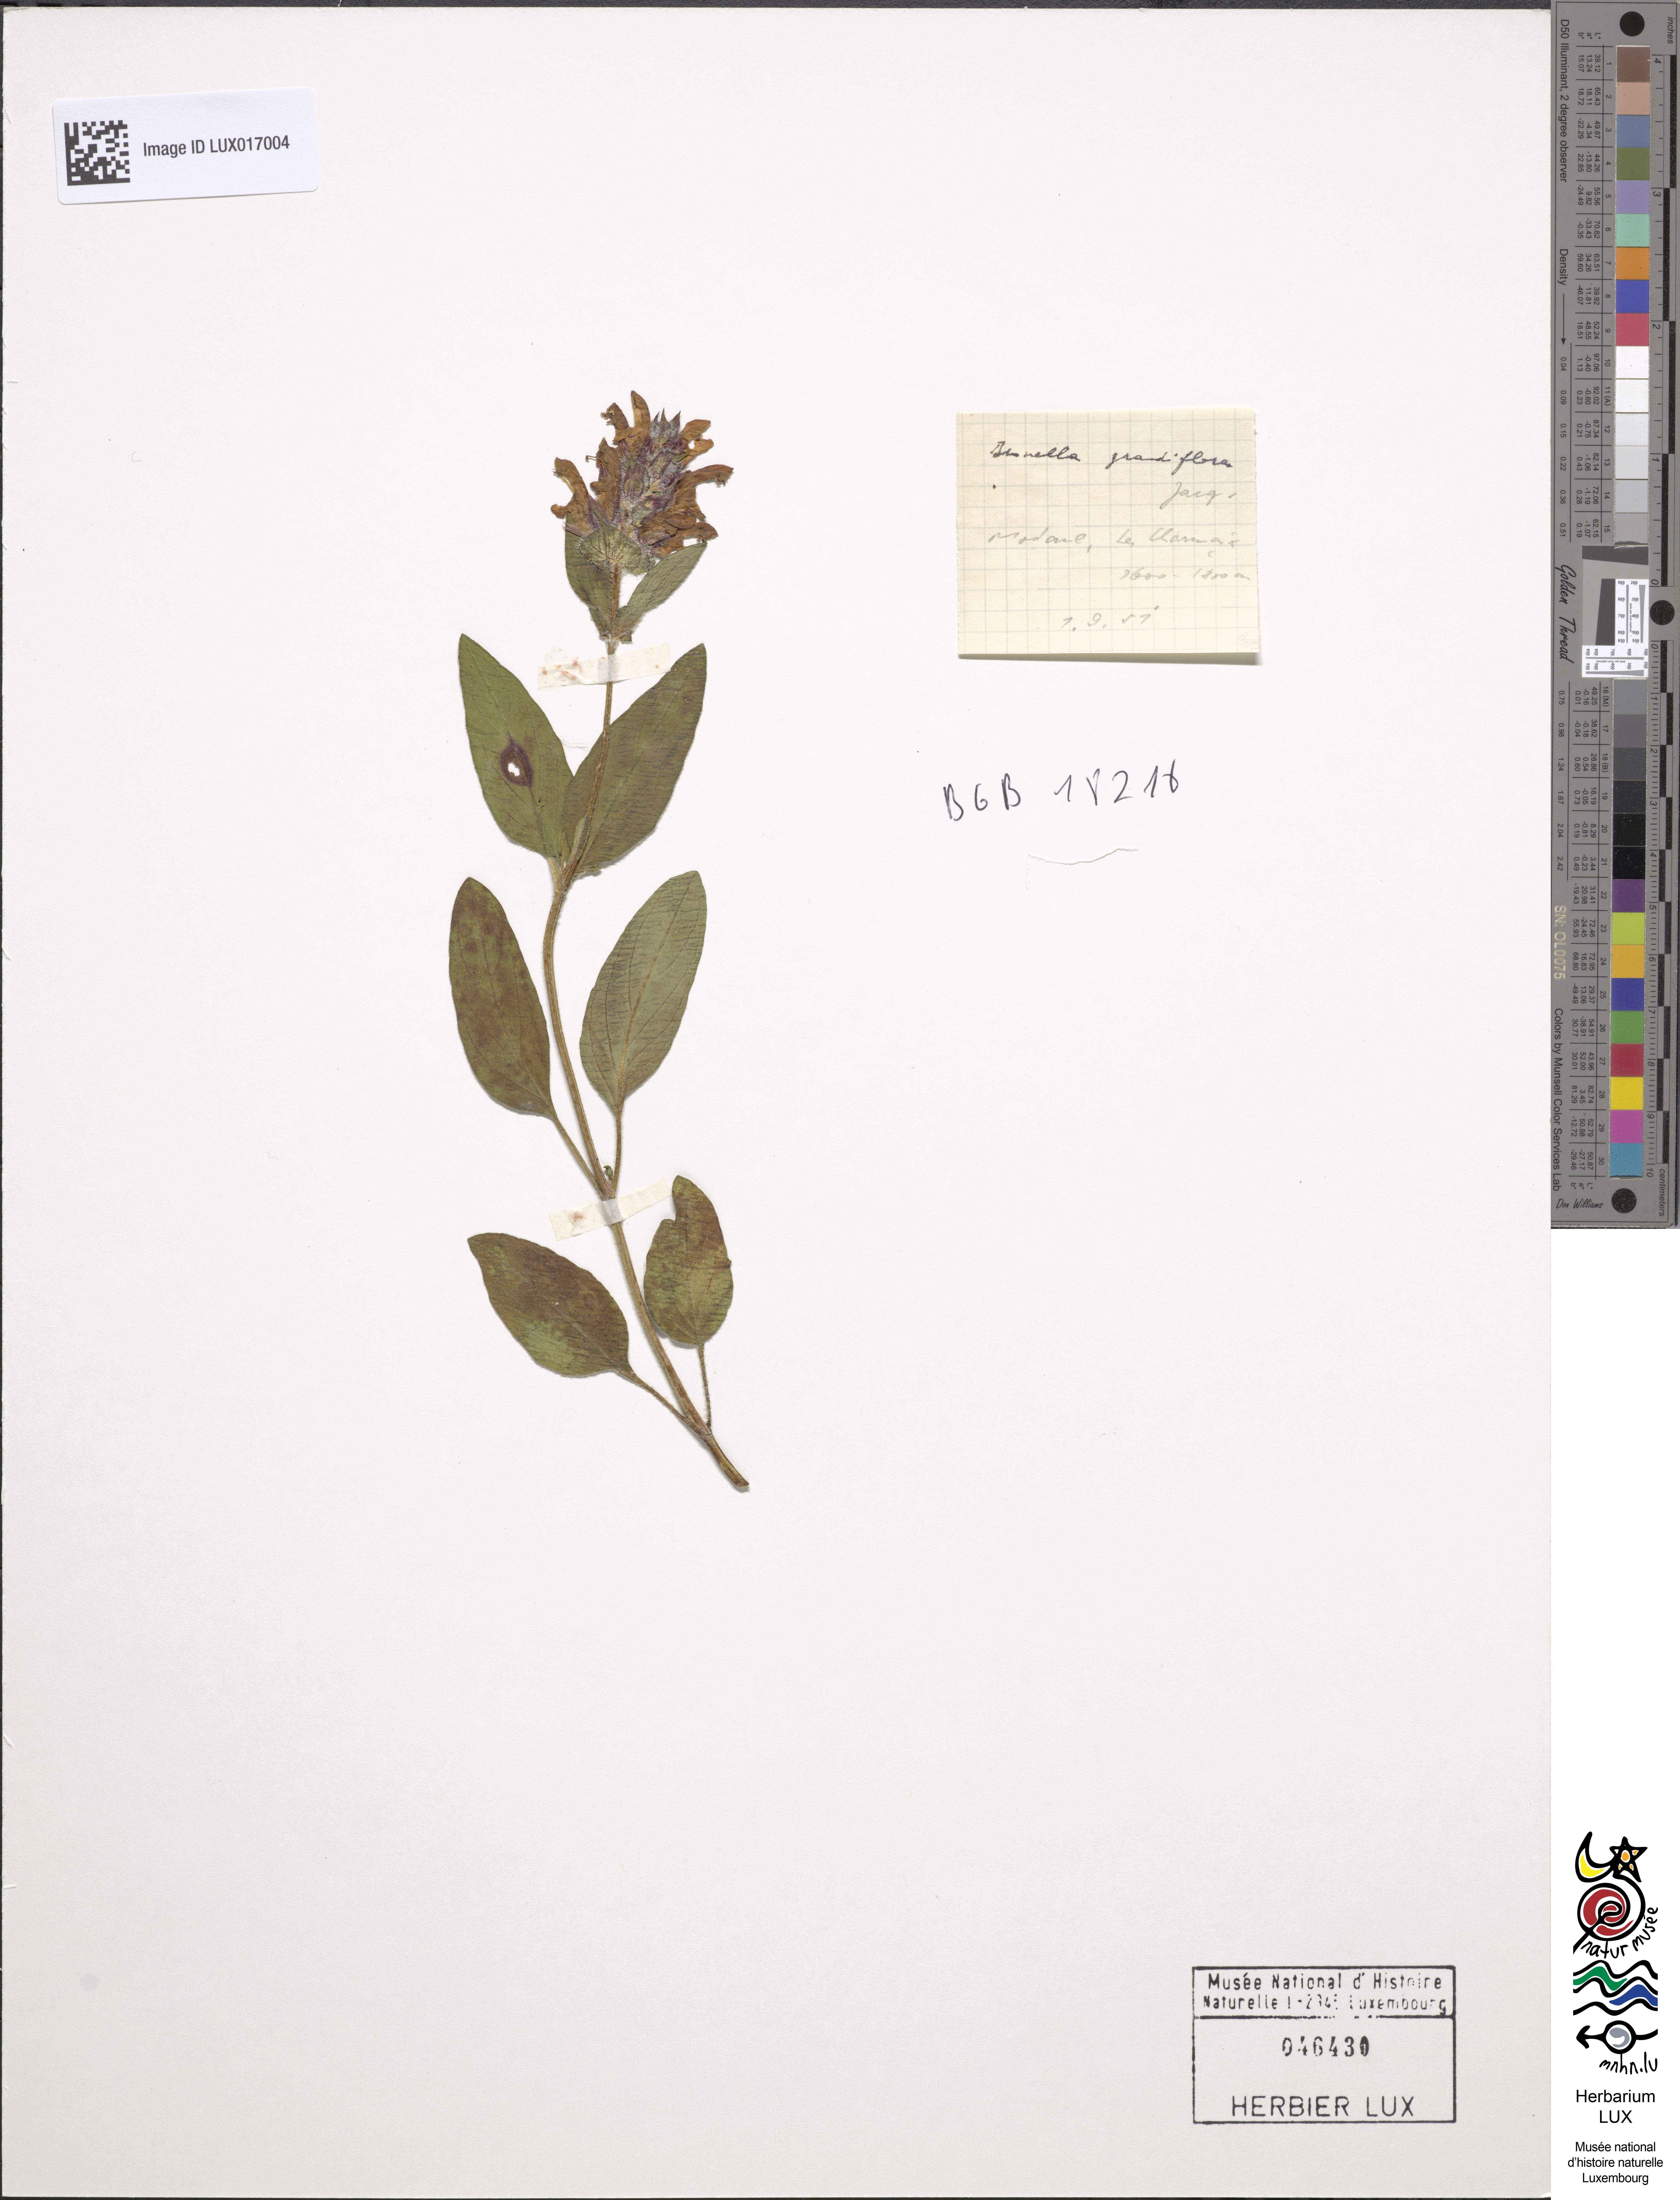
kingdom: Animalia
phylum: Chordata
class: Aves
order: Passeriformes
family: Prunellidae
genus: Prunella
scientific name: Prunella
